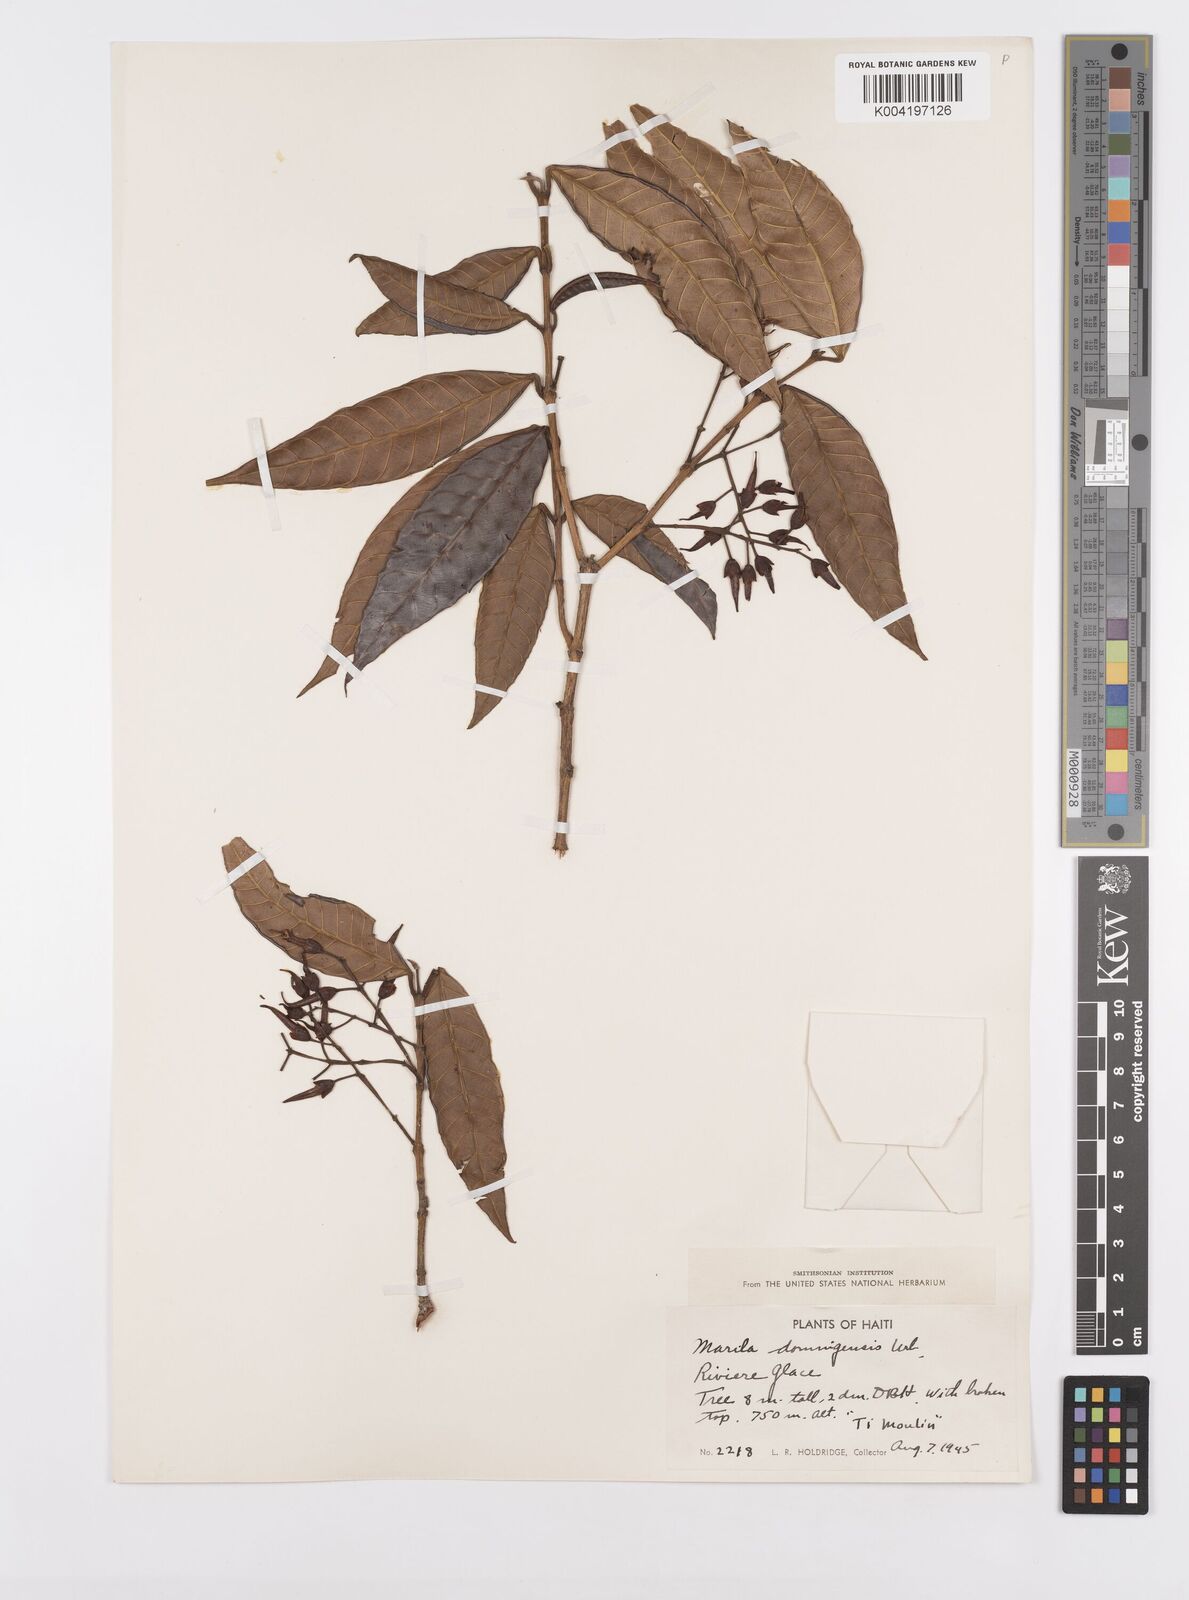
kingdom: Plantae
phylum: Tracheophyta
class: Magnoliopsida
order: Malpighiales
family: Calophyllaceae
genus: Marila
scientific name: Marila domingensis
